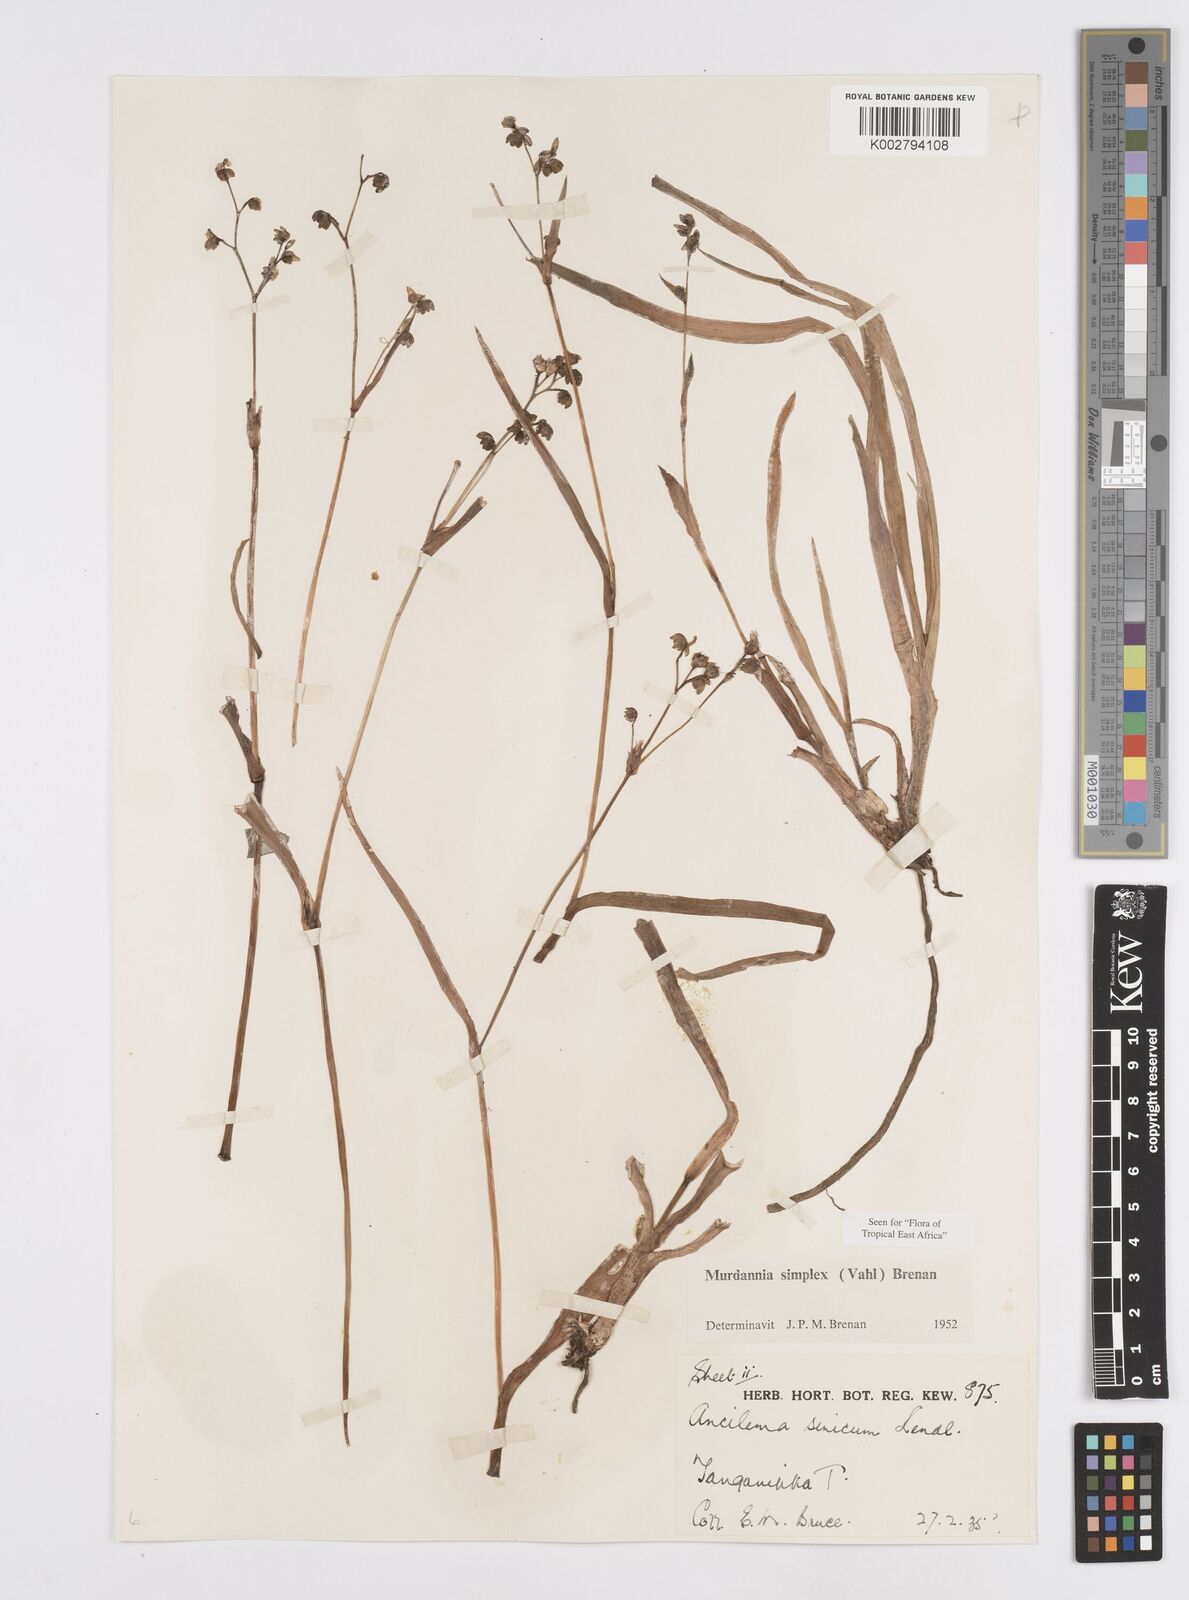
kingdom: Plantae
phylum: Tracheophyta
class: Liliopsida
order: Commelinales
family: Commelinaceae
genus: Murdannia
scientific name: Murdannia simplex
